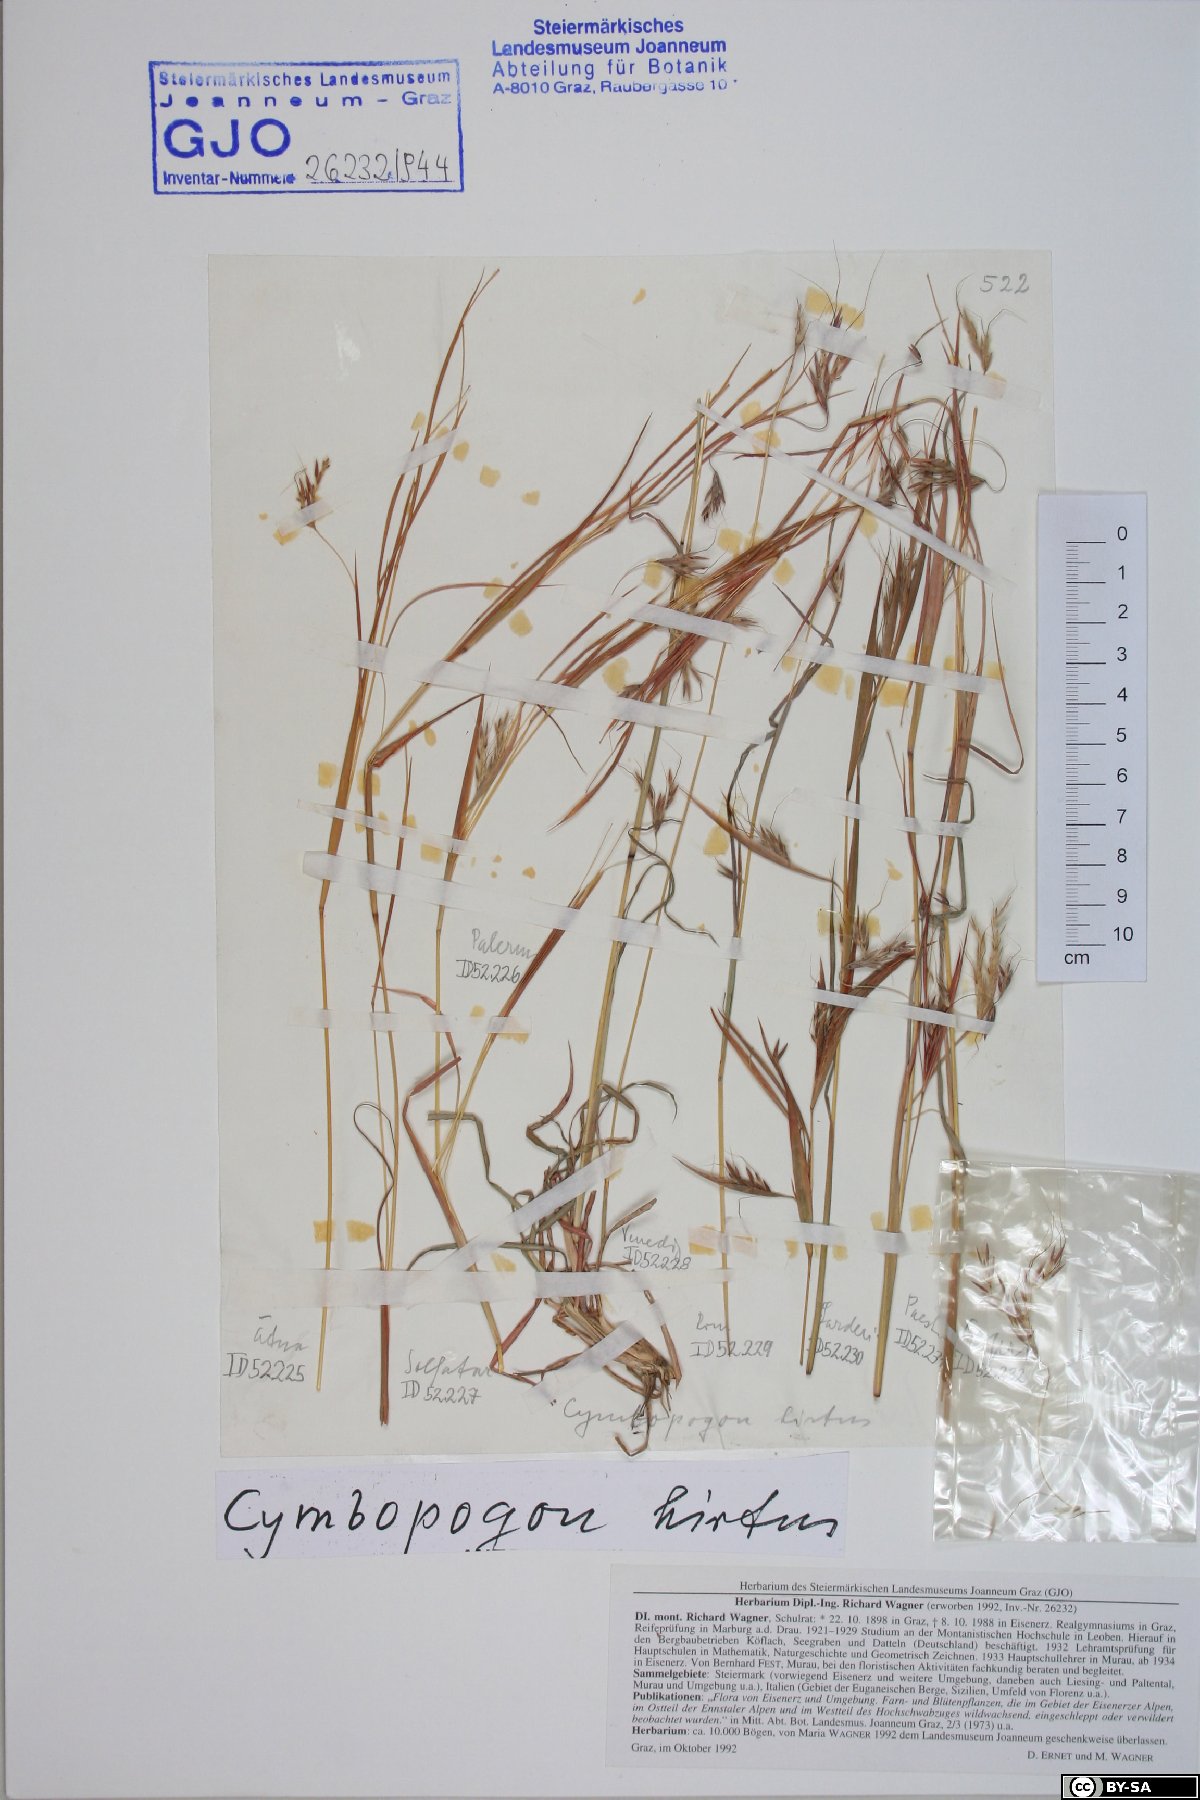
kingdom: Plantae
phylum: Tracheophyta
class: Liliopsida
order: Poales
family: Poaceae
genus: Hyparrhenia
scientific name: Hyparrhenia hirta
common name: Thatching grass
